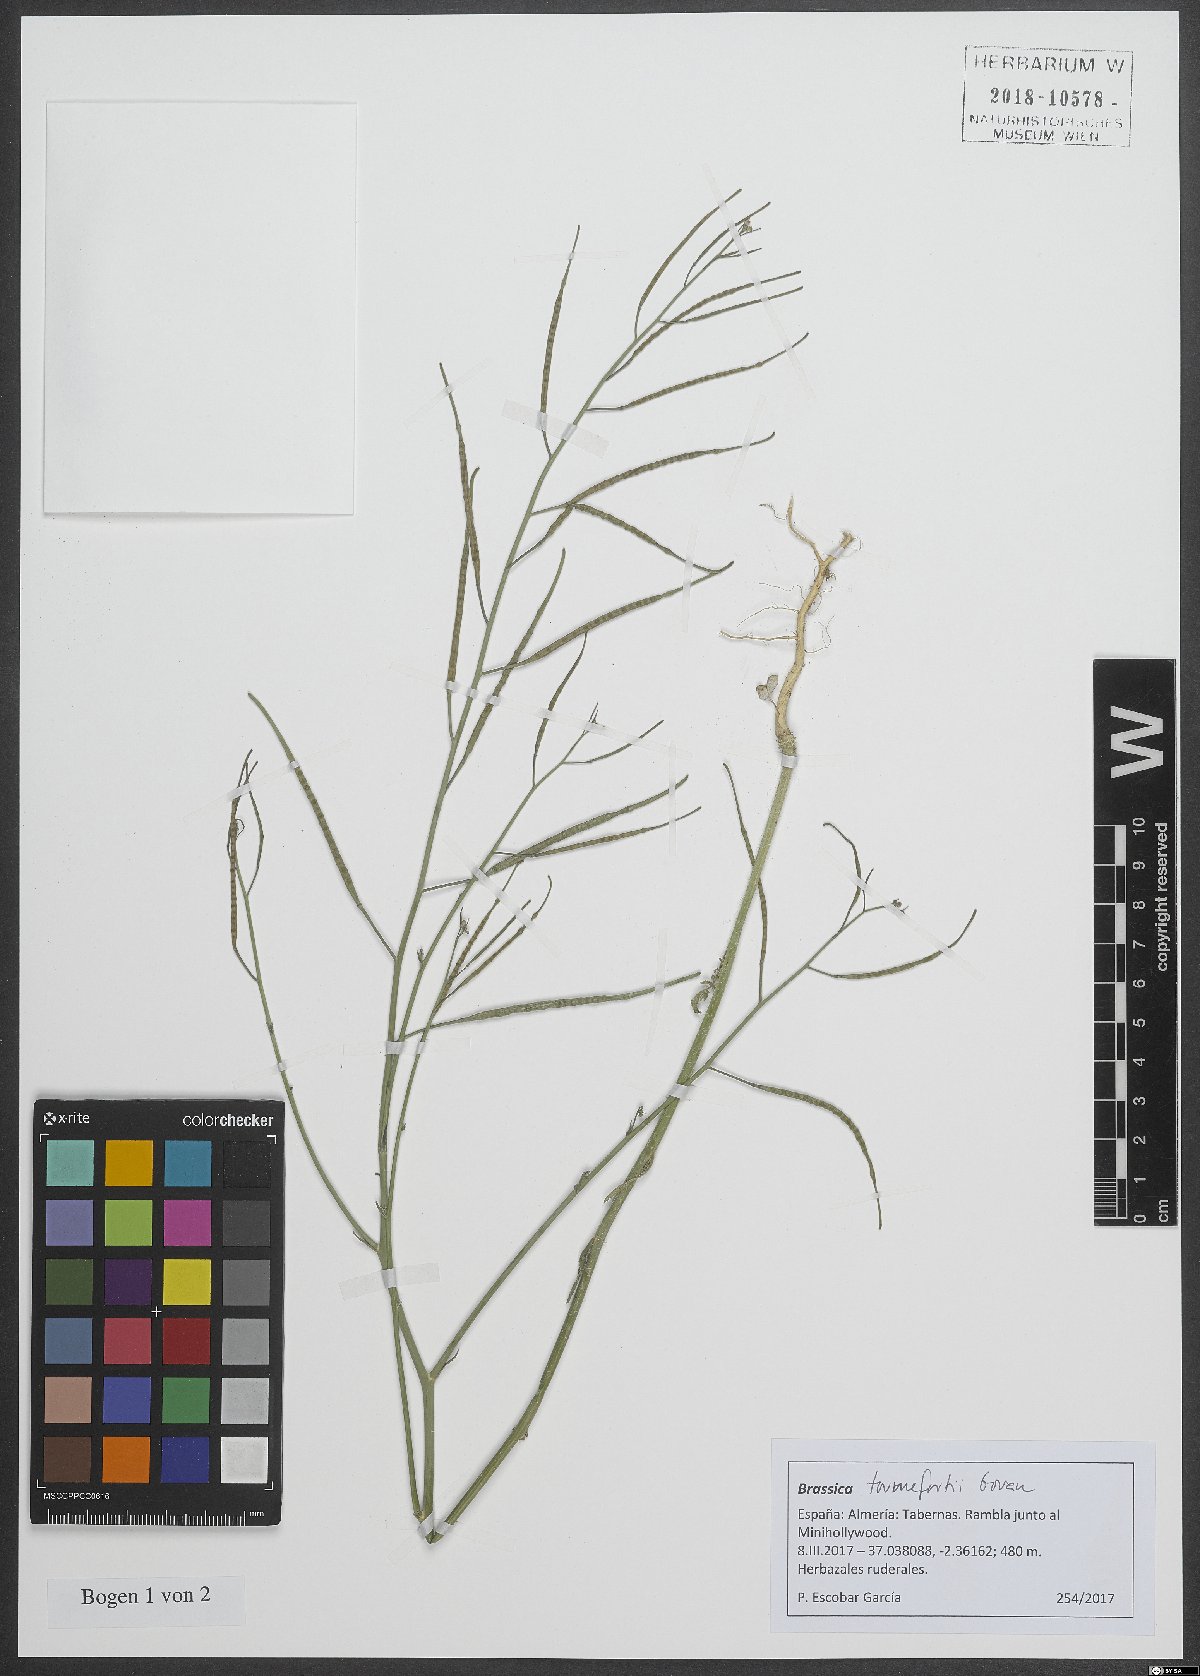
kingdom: Plantae
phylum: Tracheophyta
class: Magnoliopsida
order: Brassicales
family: Brassicaceae
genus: Brassica
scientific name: Brassica tournefortii
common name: Pale cabbage
